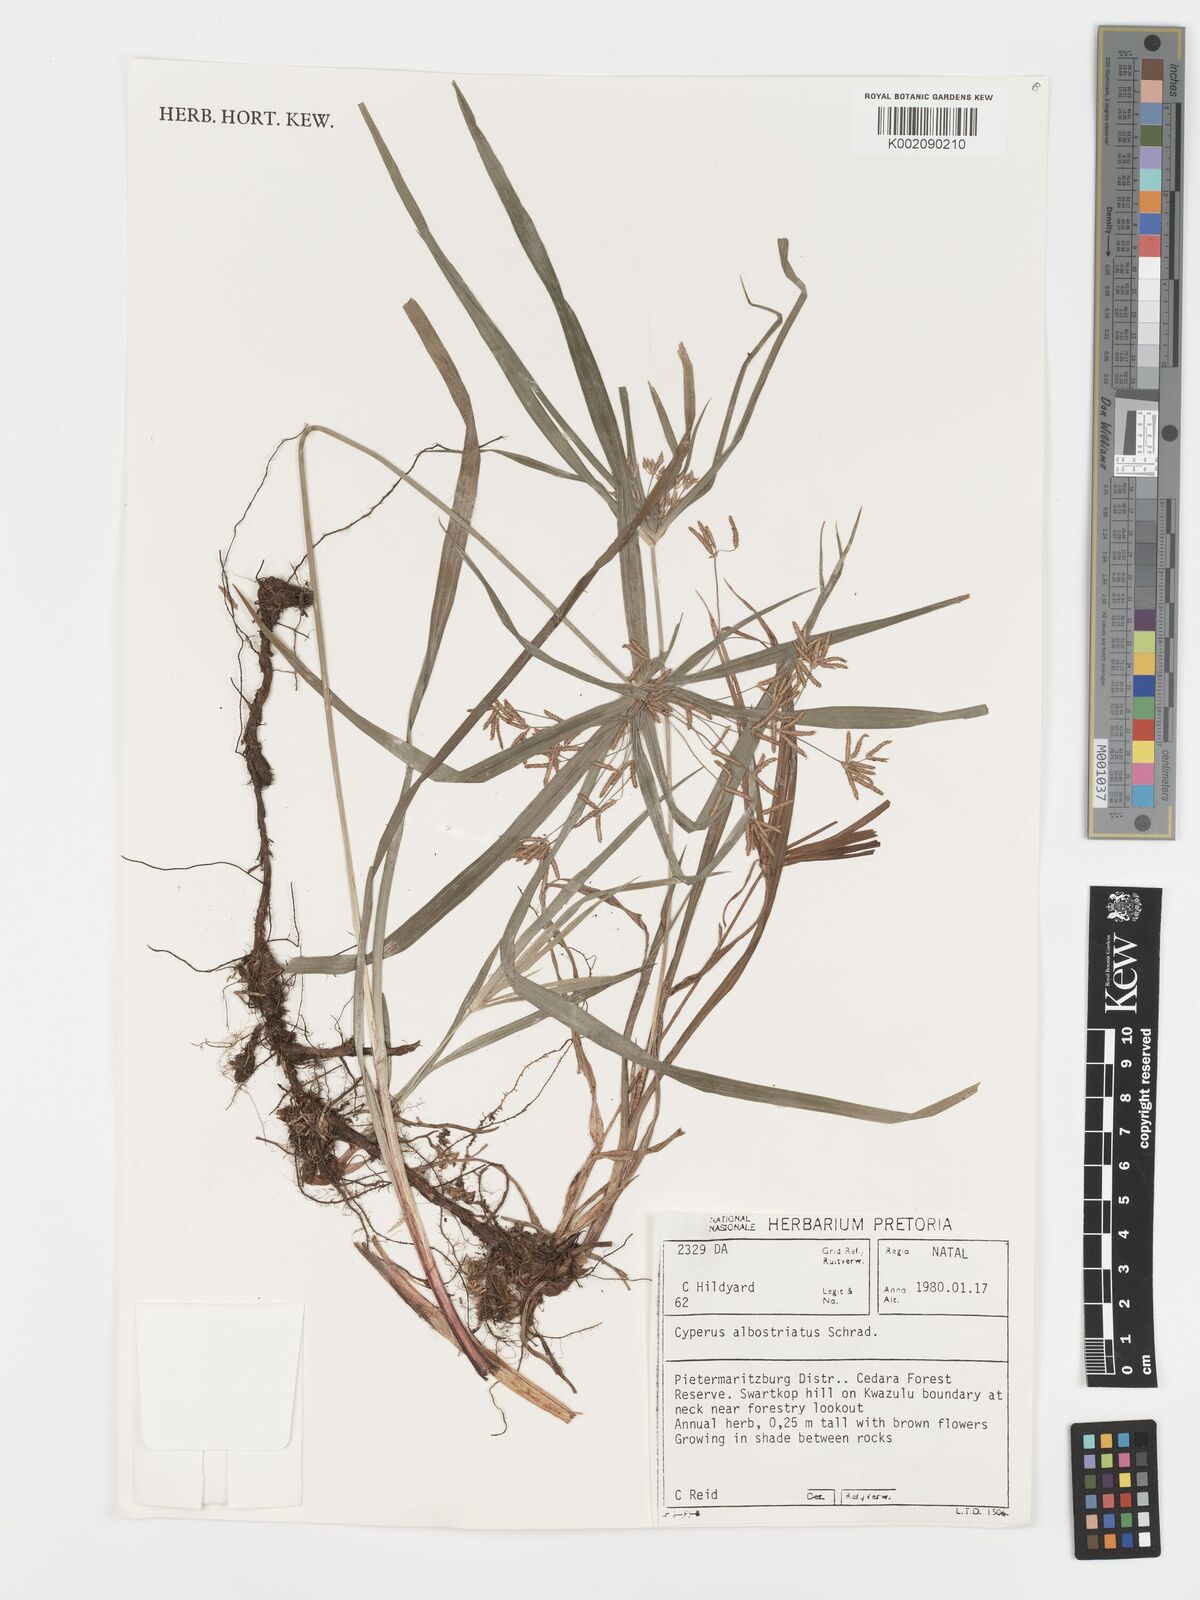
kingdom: Plantae
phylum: Tracheophyta
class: Liliopsida
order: Poales
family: Cyperaceae
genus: Cyperus
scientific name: Cyperus albostriatus
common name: Dwarf umbrella-grass
